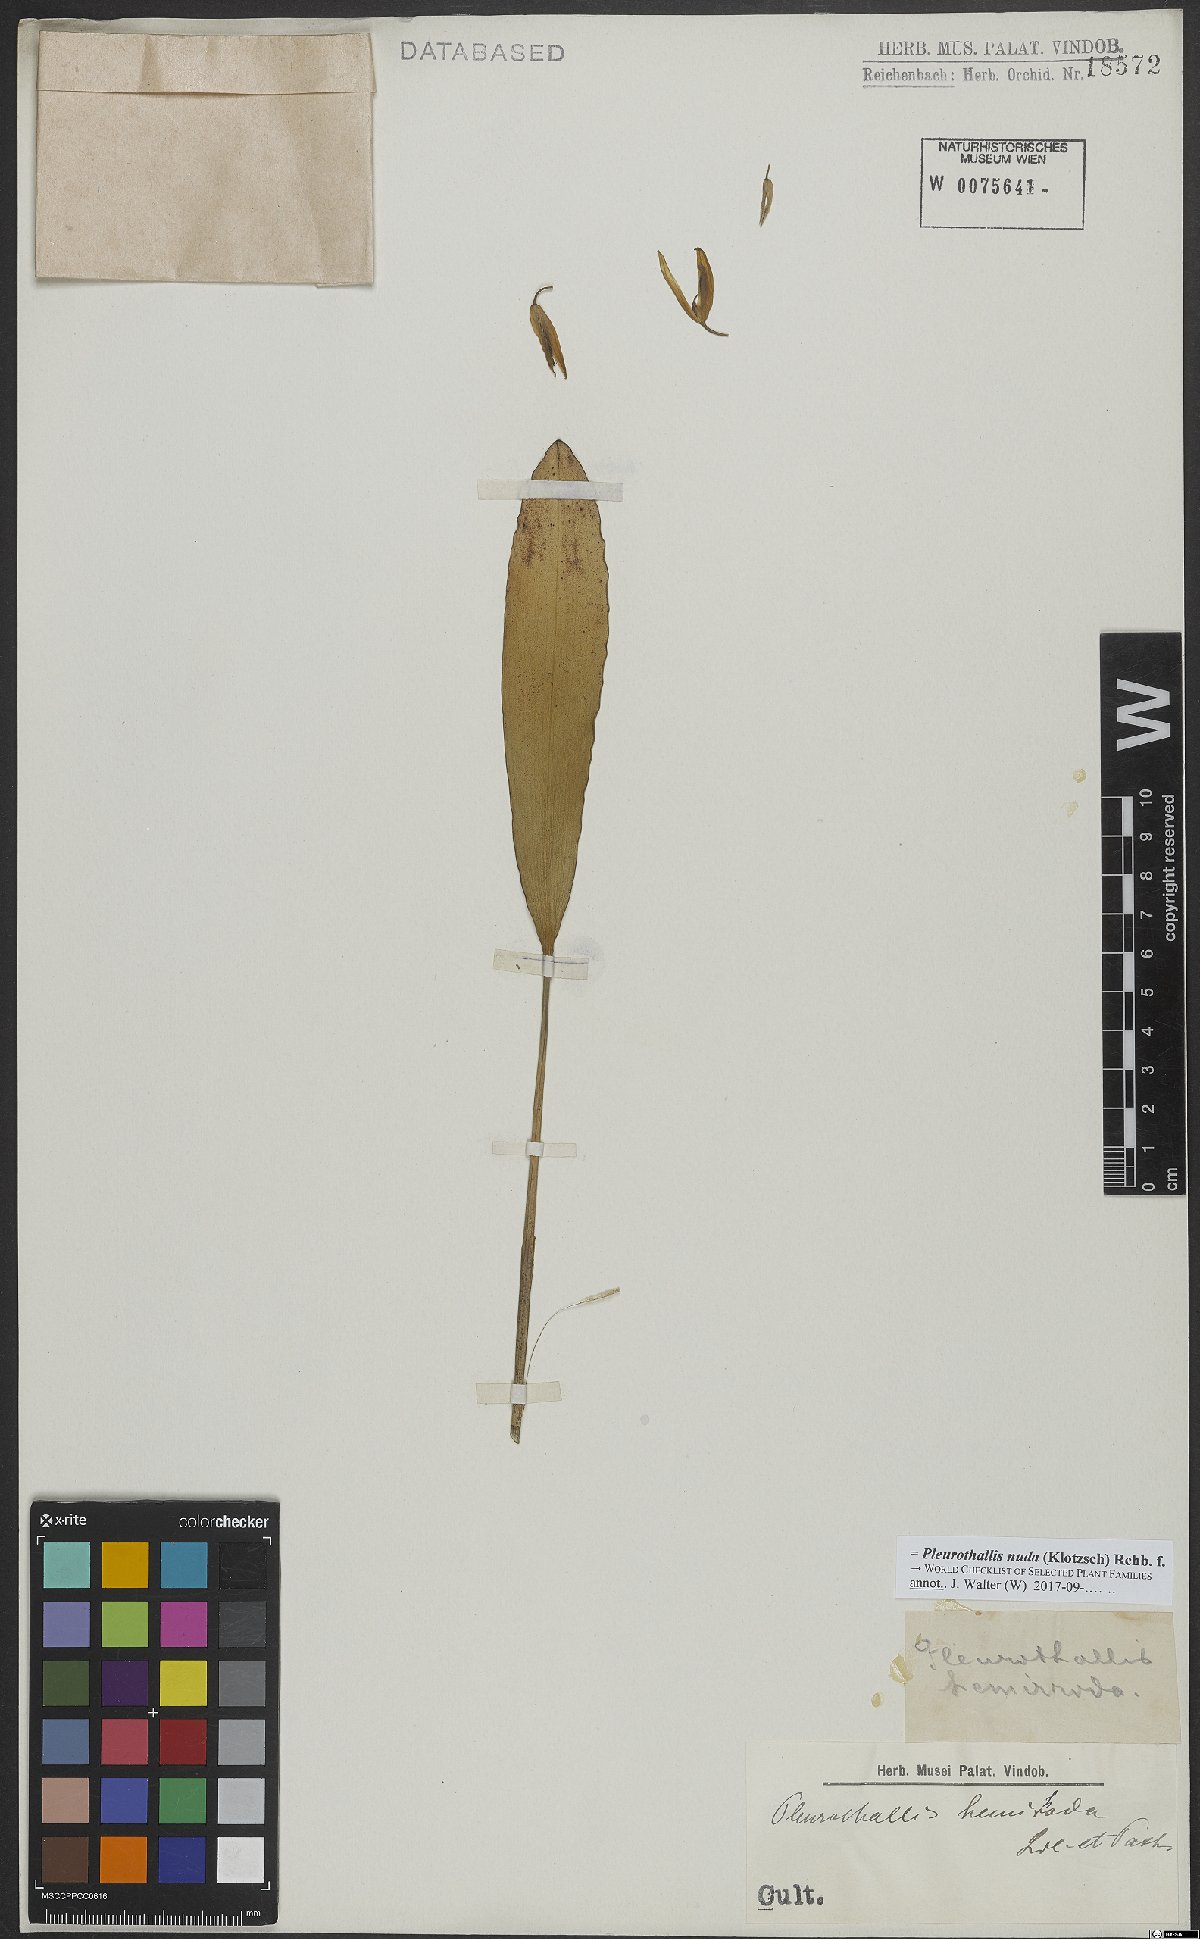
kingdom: Plantae
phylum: Tracheophyta
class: Liliopsida
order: Asparagales
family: Orchidaceae
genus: Pleurothallis
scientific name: Pleurothallis nuda
